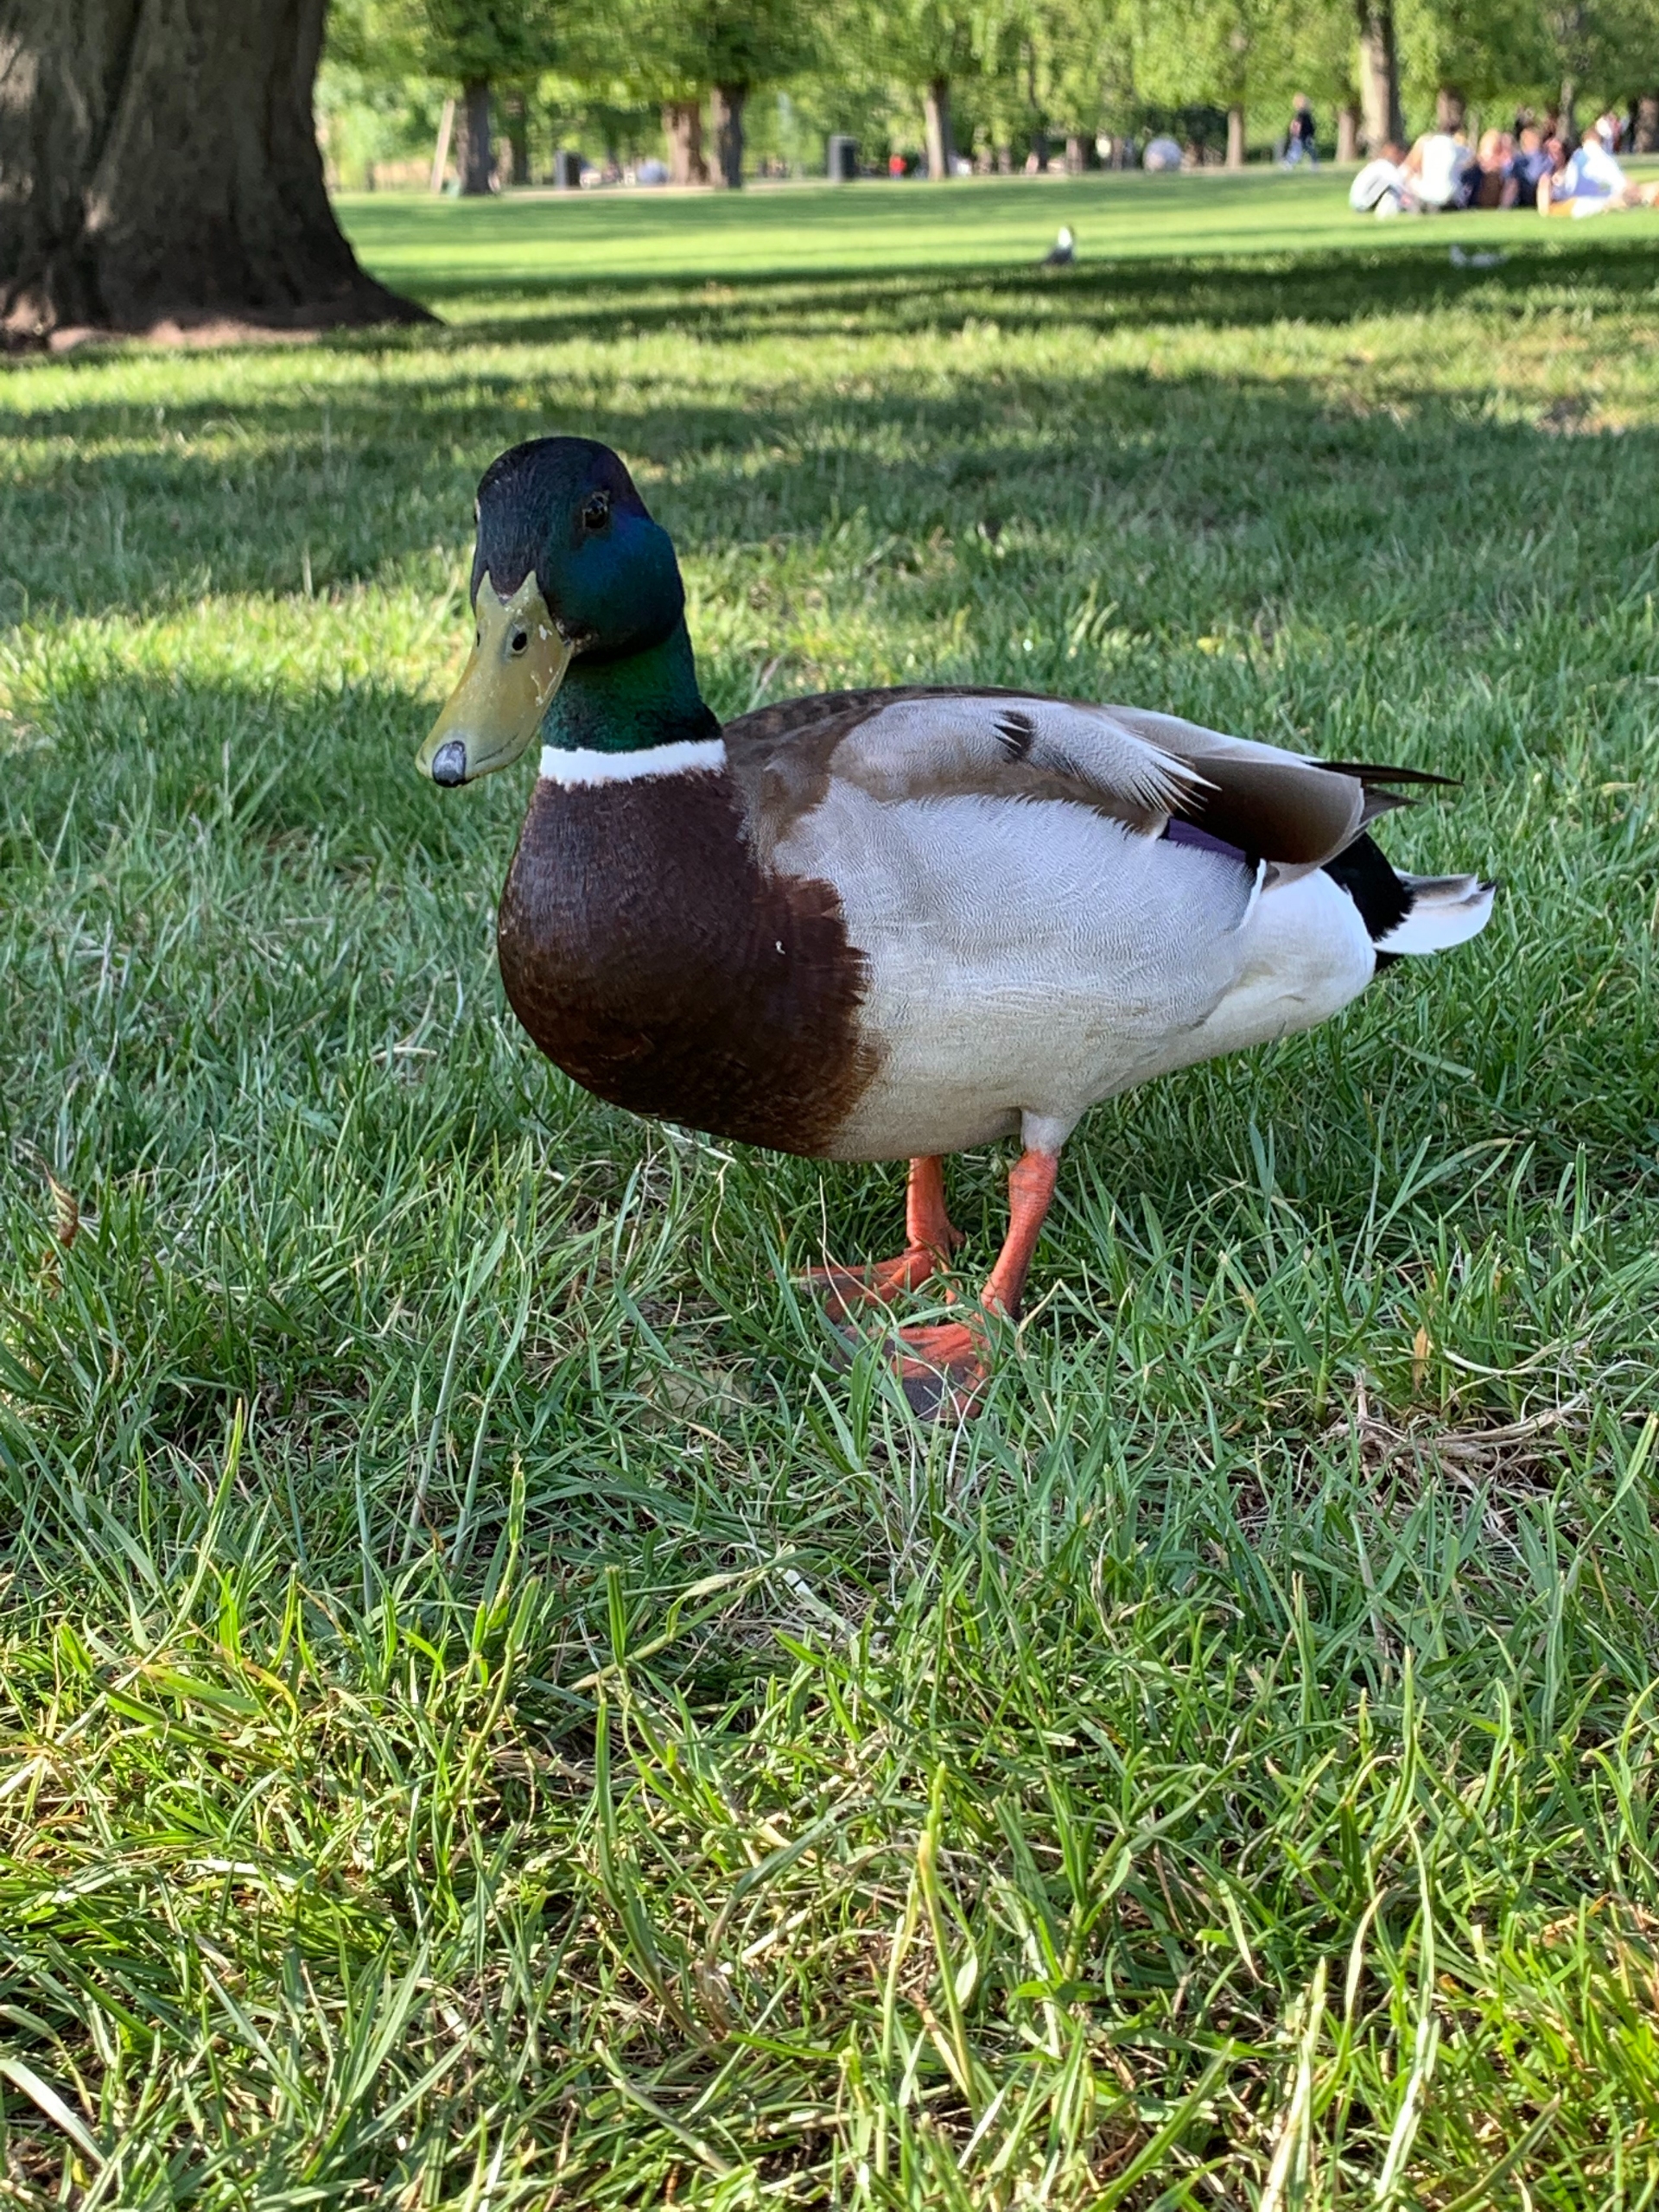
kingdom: Animalia
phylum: Chordata
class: Aves
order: Anseriformes
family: Anatidae
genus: Anas
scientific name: Anas platyrhynchos
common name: Gråand
